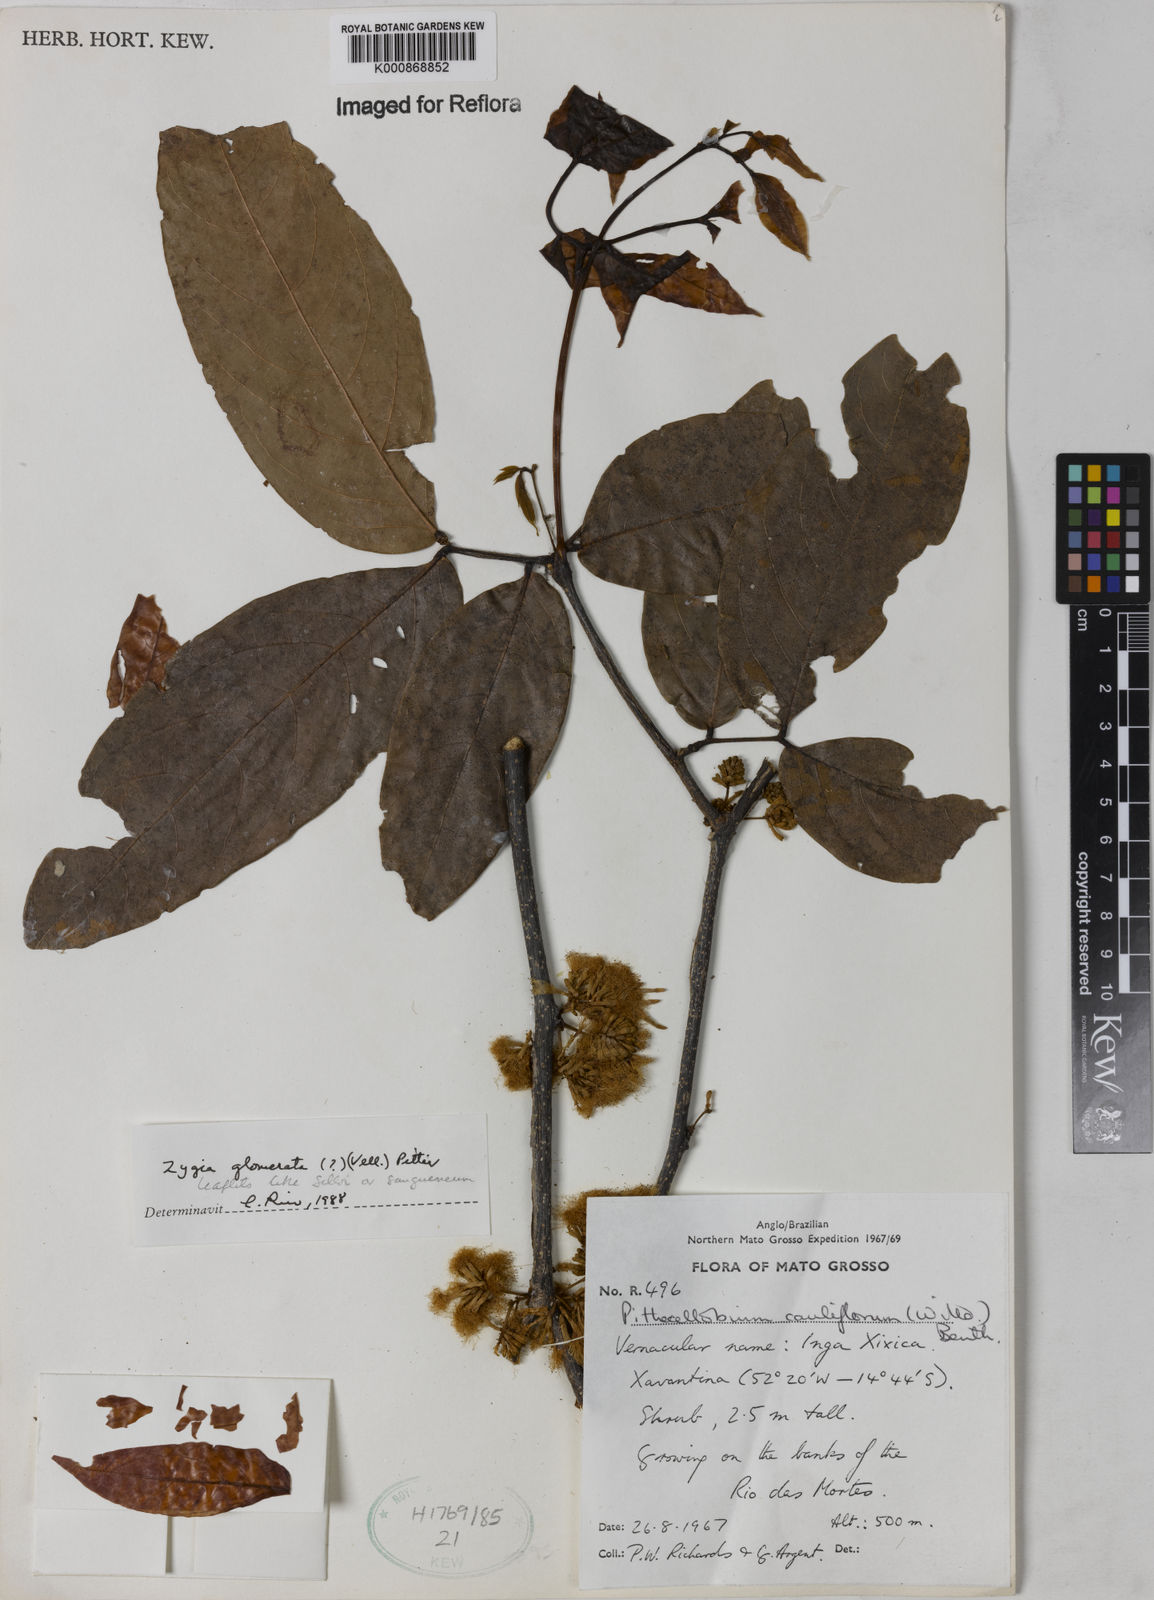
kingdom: Plantae
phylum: Tracheophyta
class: Magnoliopsida
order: Fabales
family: Fabaceae
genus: Zygia
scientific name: Zygia cataractae
